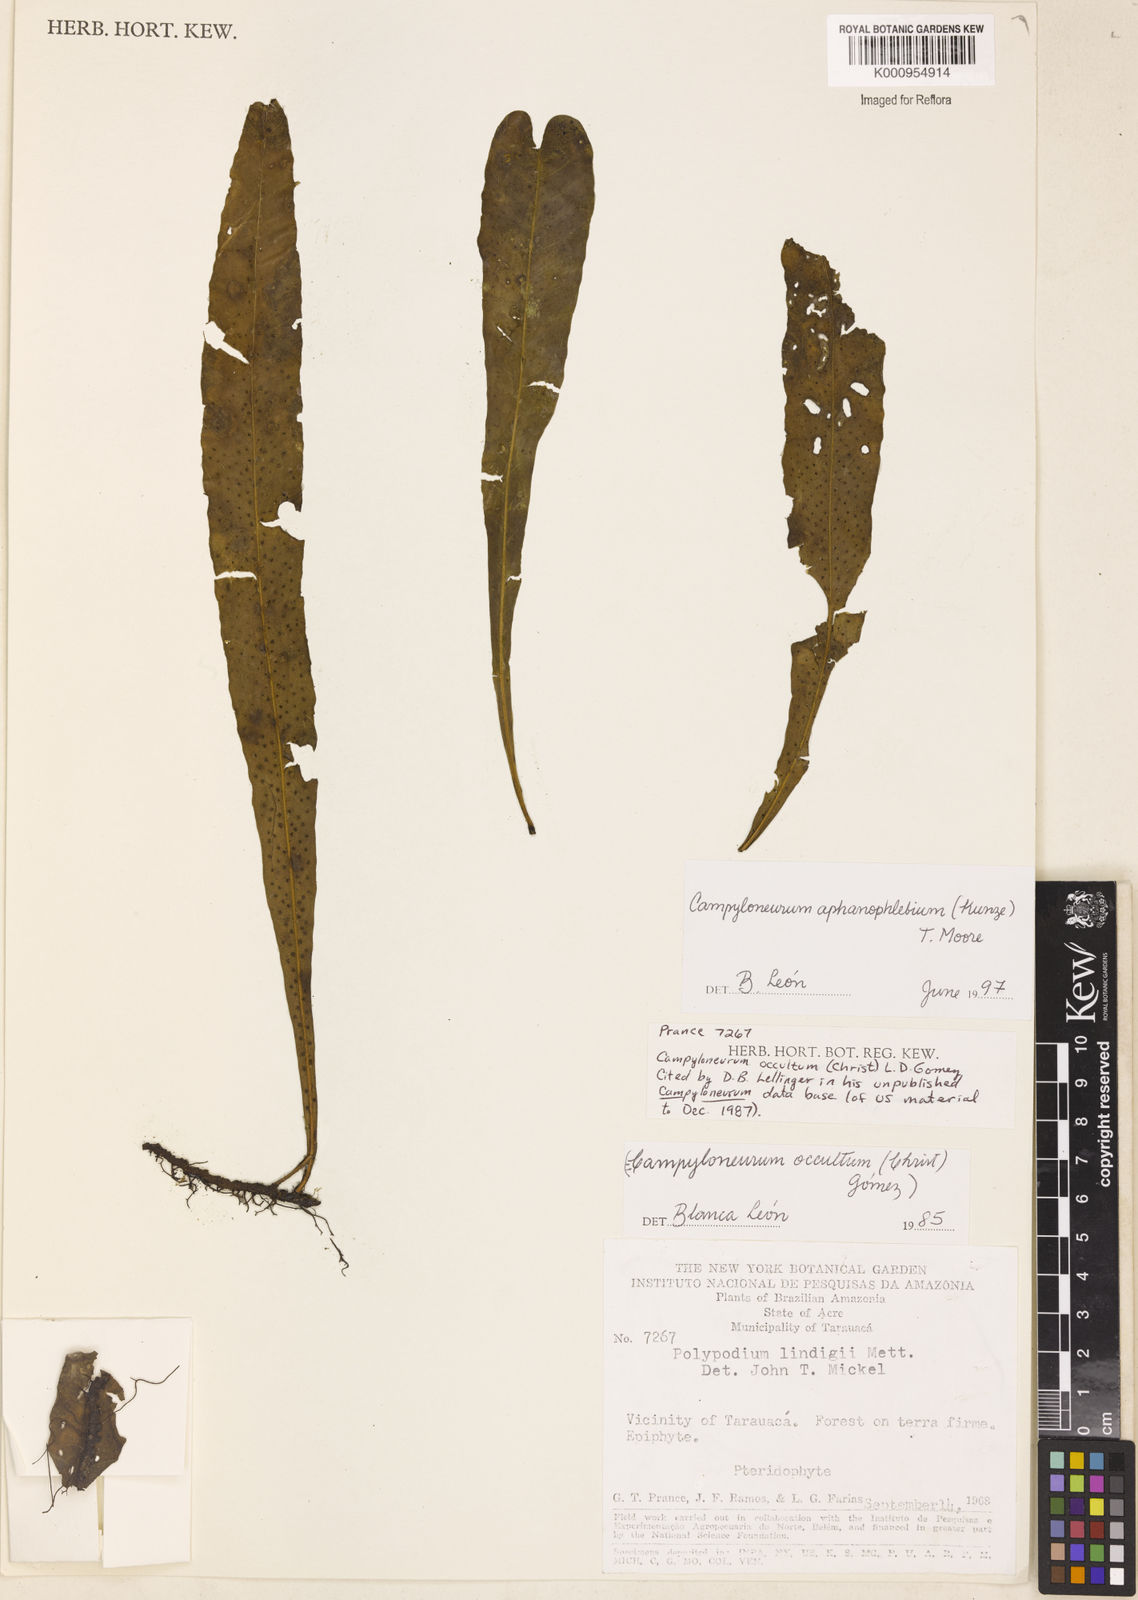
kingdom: Plantae
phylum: Tracheophyta
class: Polypodiopsida
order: Polypodiales
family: Polypodiaceae
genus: Campyloneurum
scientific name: Campyloneurum aphanophlebium
